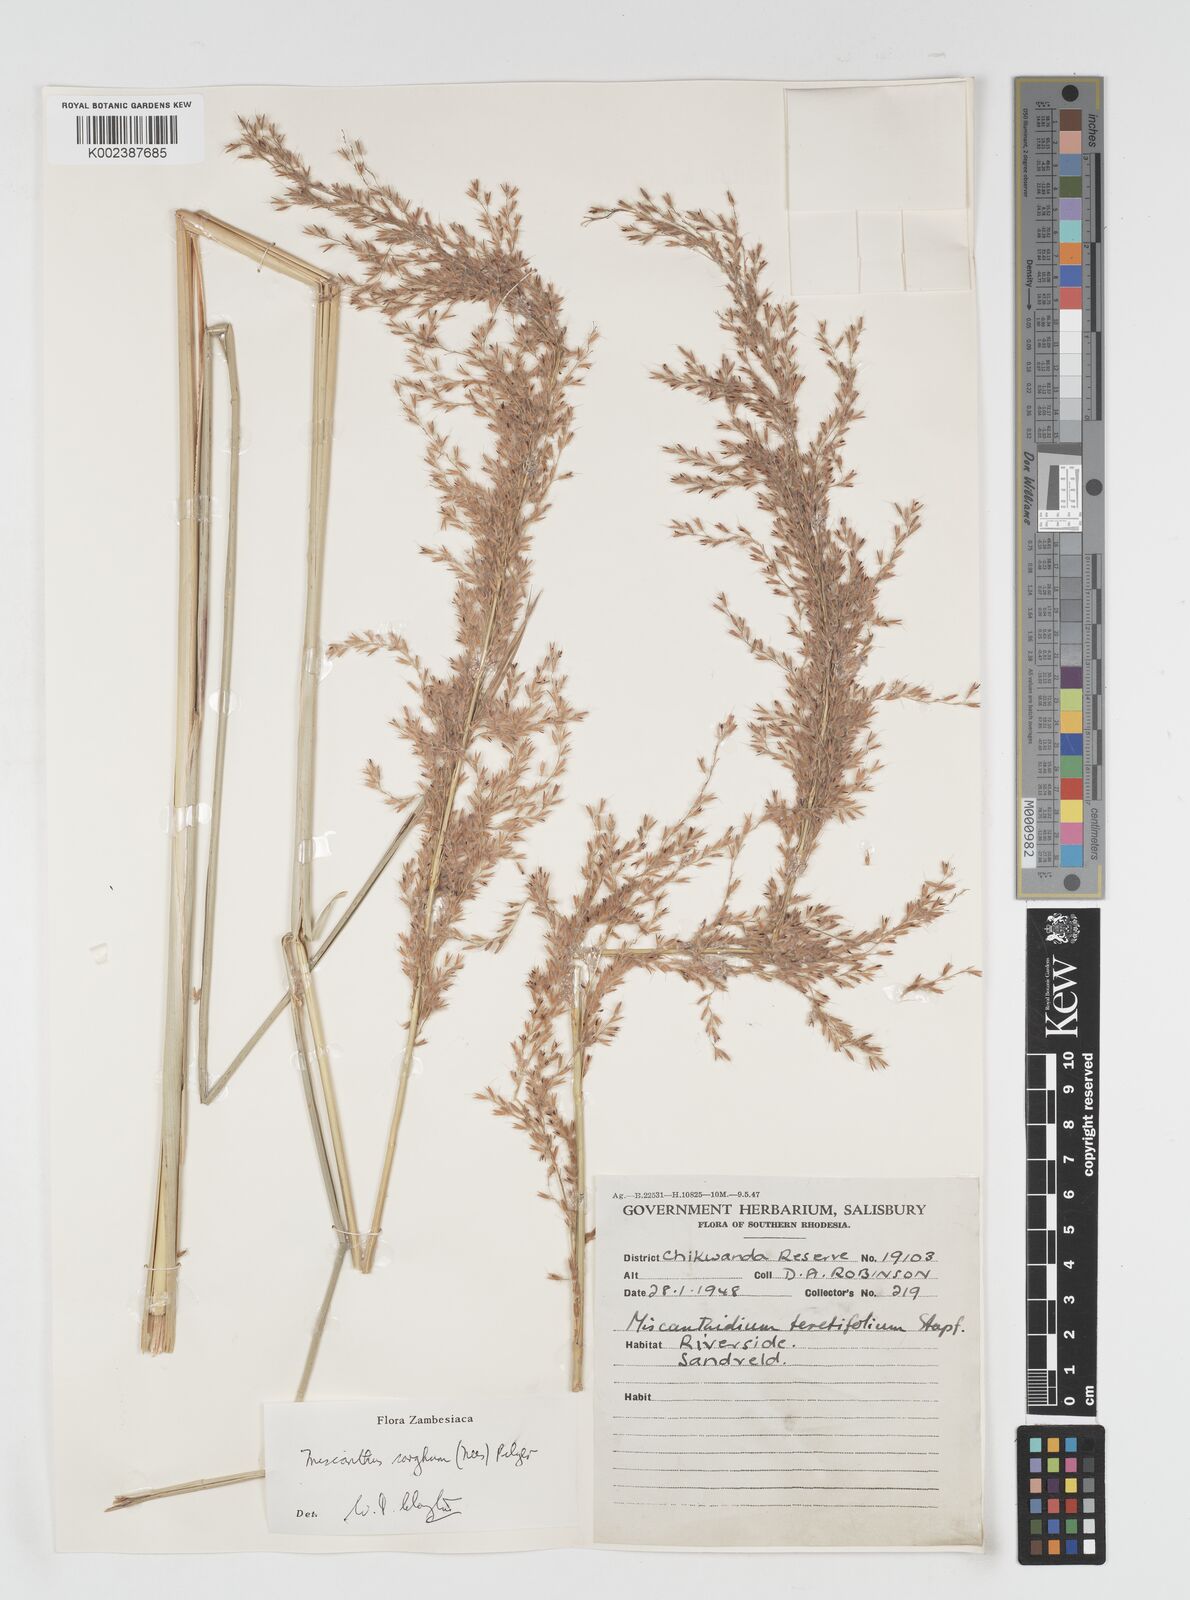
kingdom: Plantae
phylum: Tracheophyta
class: Liliopsida
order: Poales
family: Poaceae
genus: Miscanthus
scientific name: Miscanthus ecklonii
